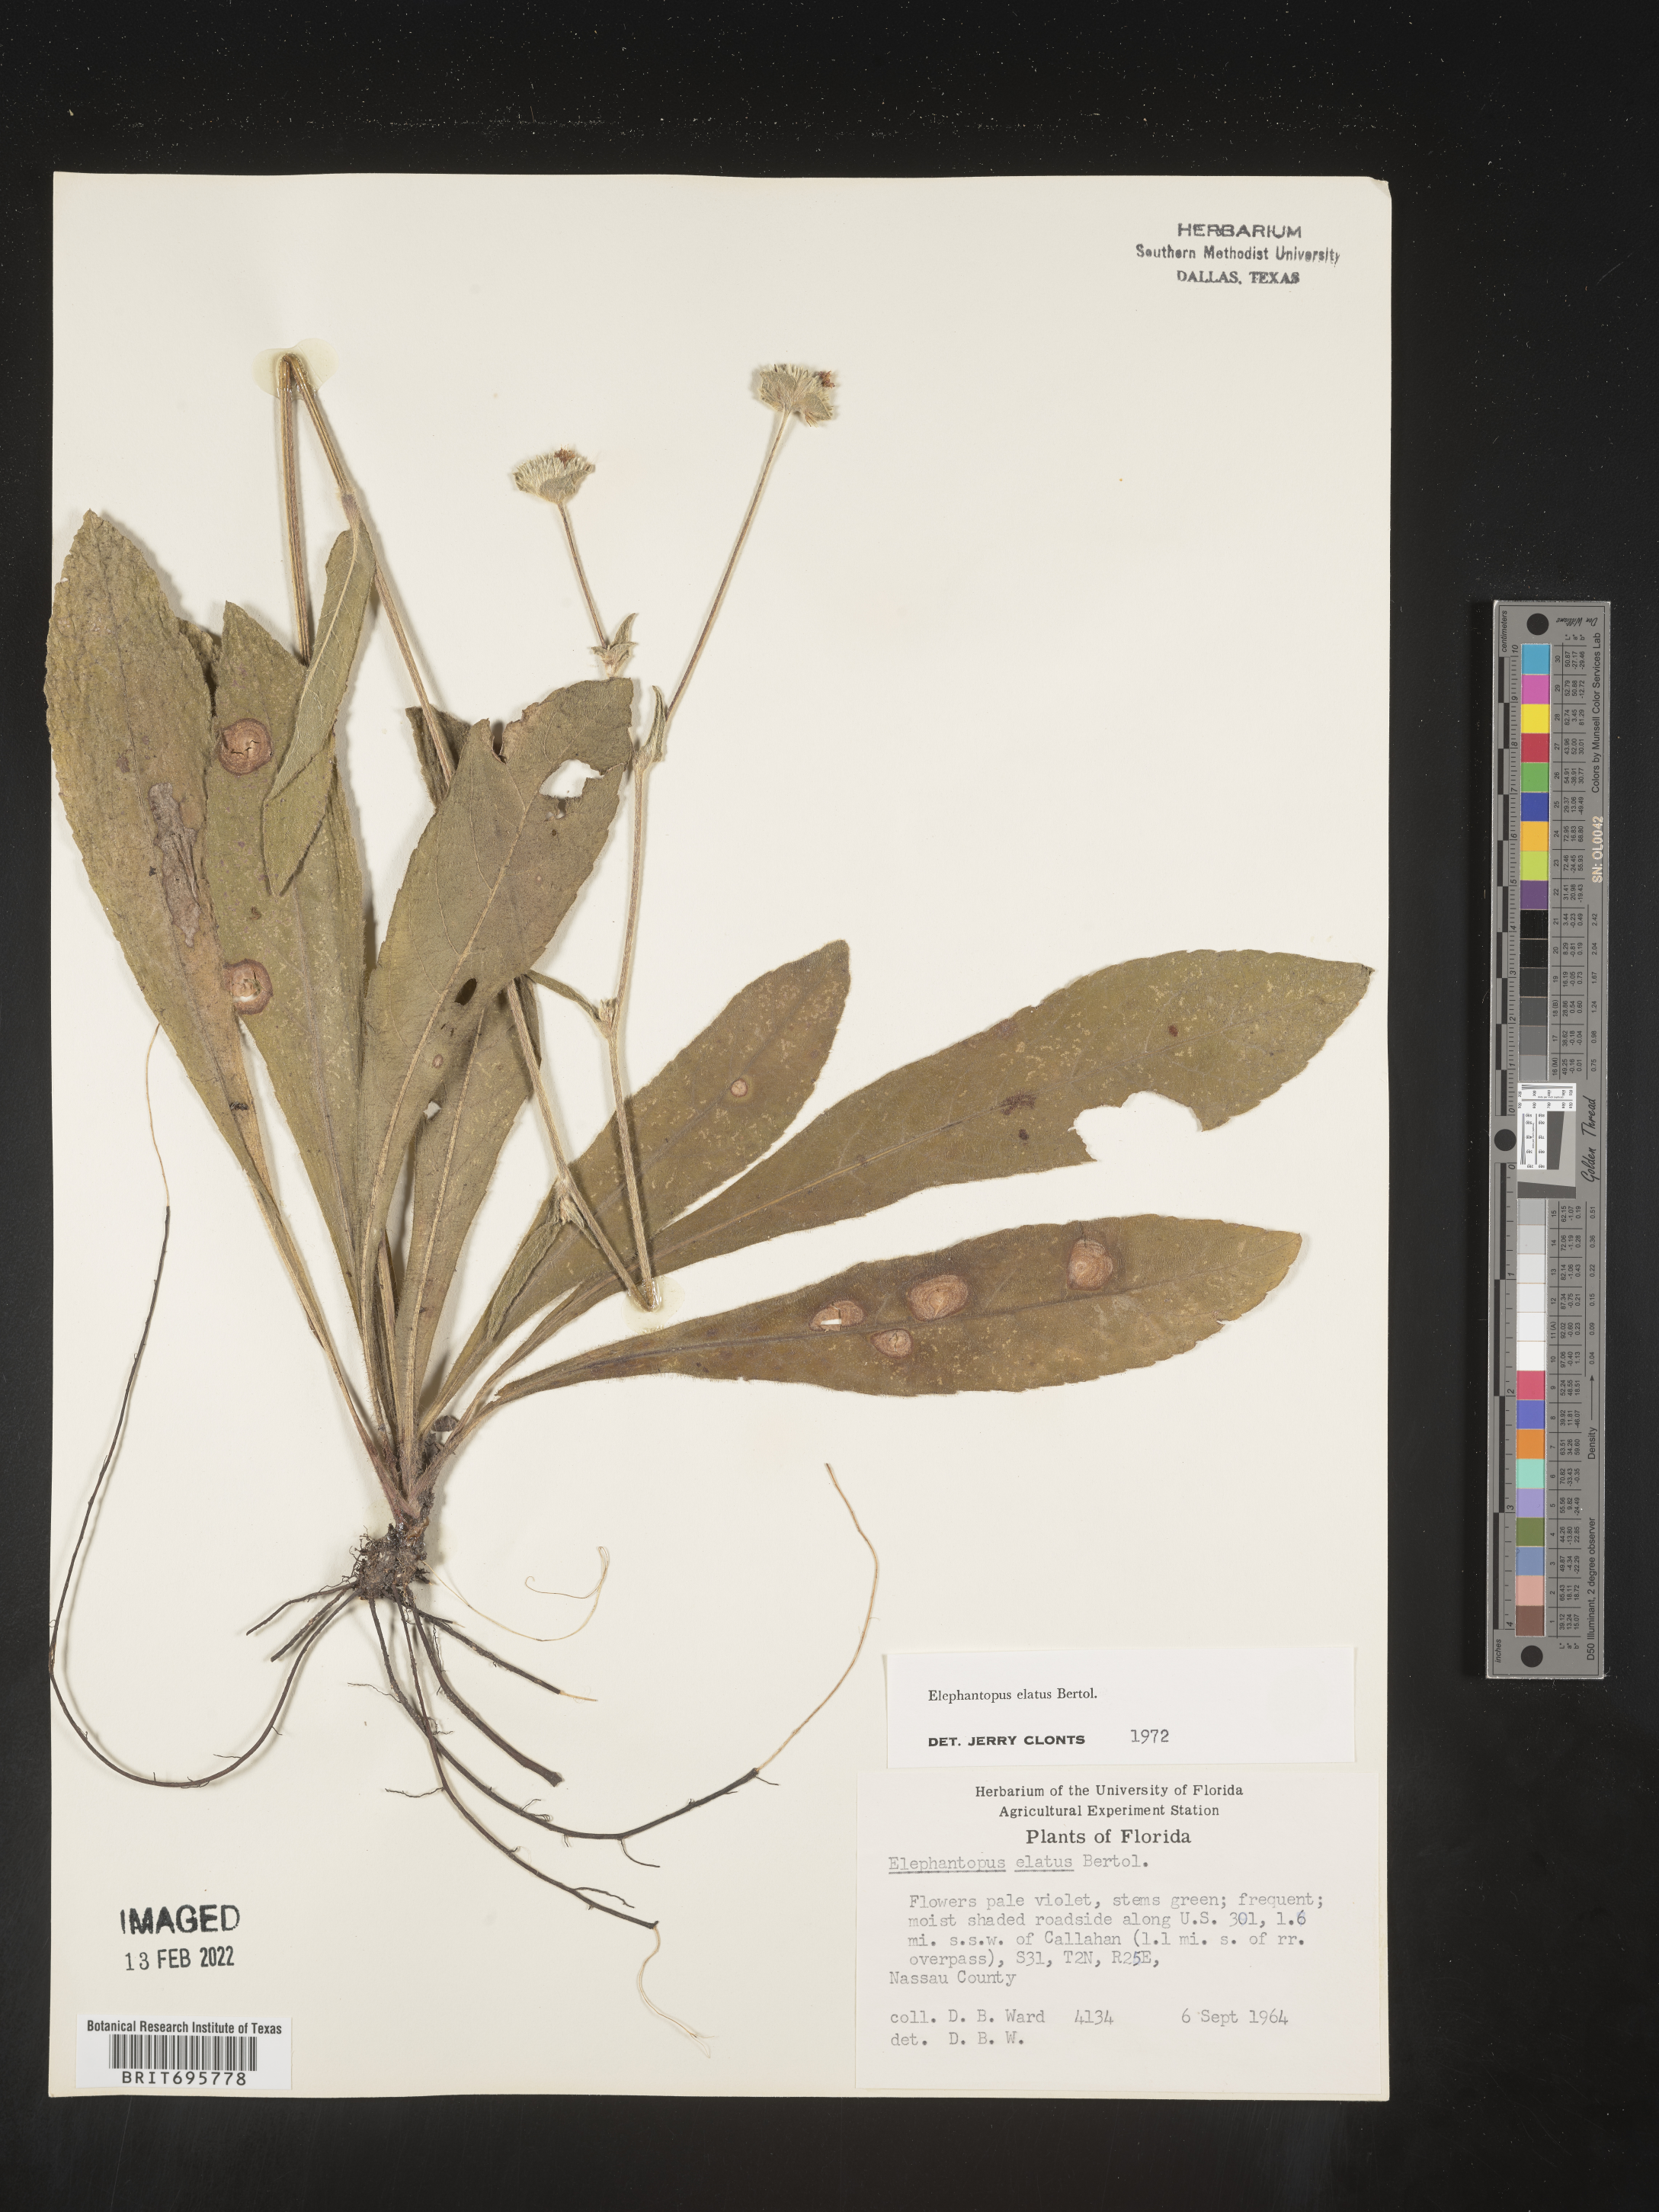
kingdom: Plantae
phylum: Tracheophyta
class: Magnoliopsida
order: Asterales
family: Asteraceae
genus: Elephantopus
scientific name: Elephantopus elatus
